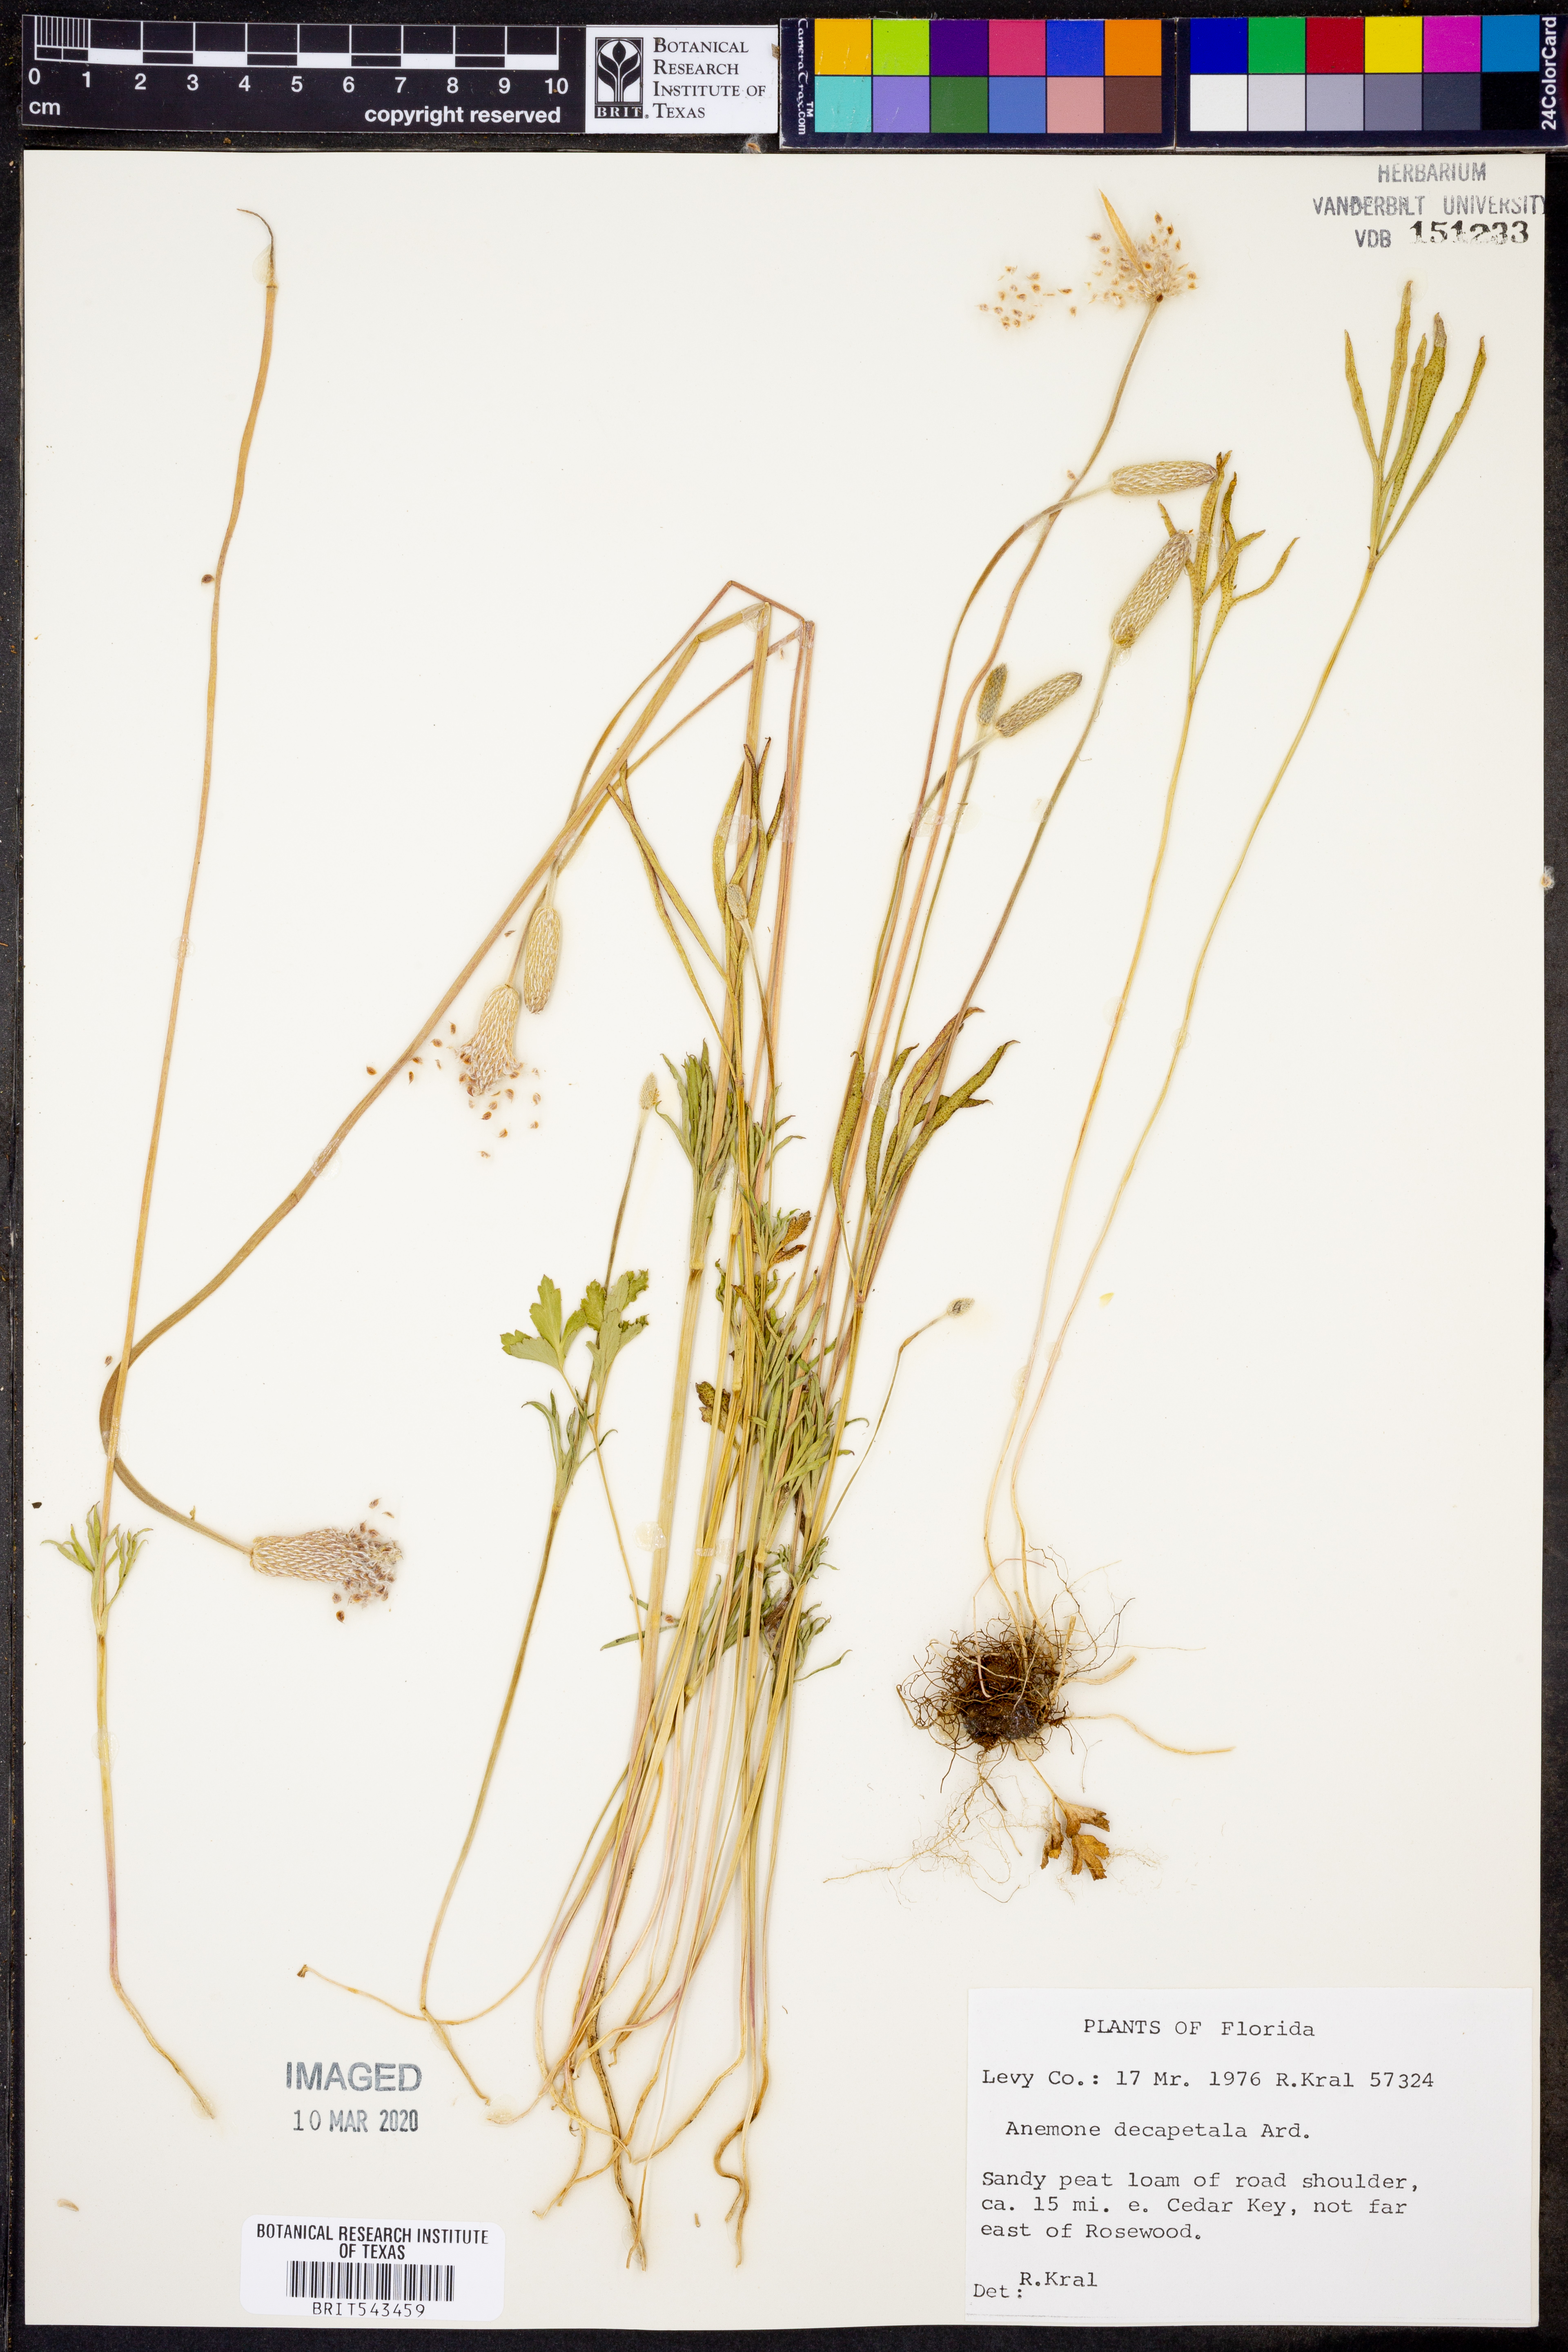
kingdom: Plantae
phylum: Tracheophyta
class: Magnoliopsida
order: Ranunculales
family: Ranunculaceae
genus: Anemone
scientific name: Anemone decapetala
